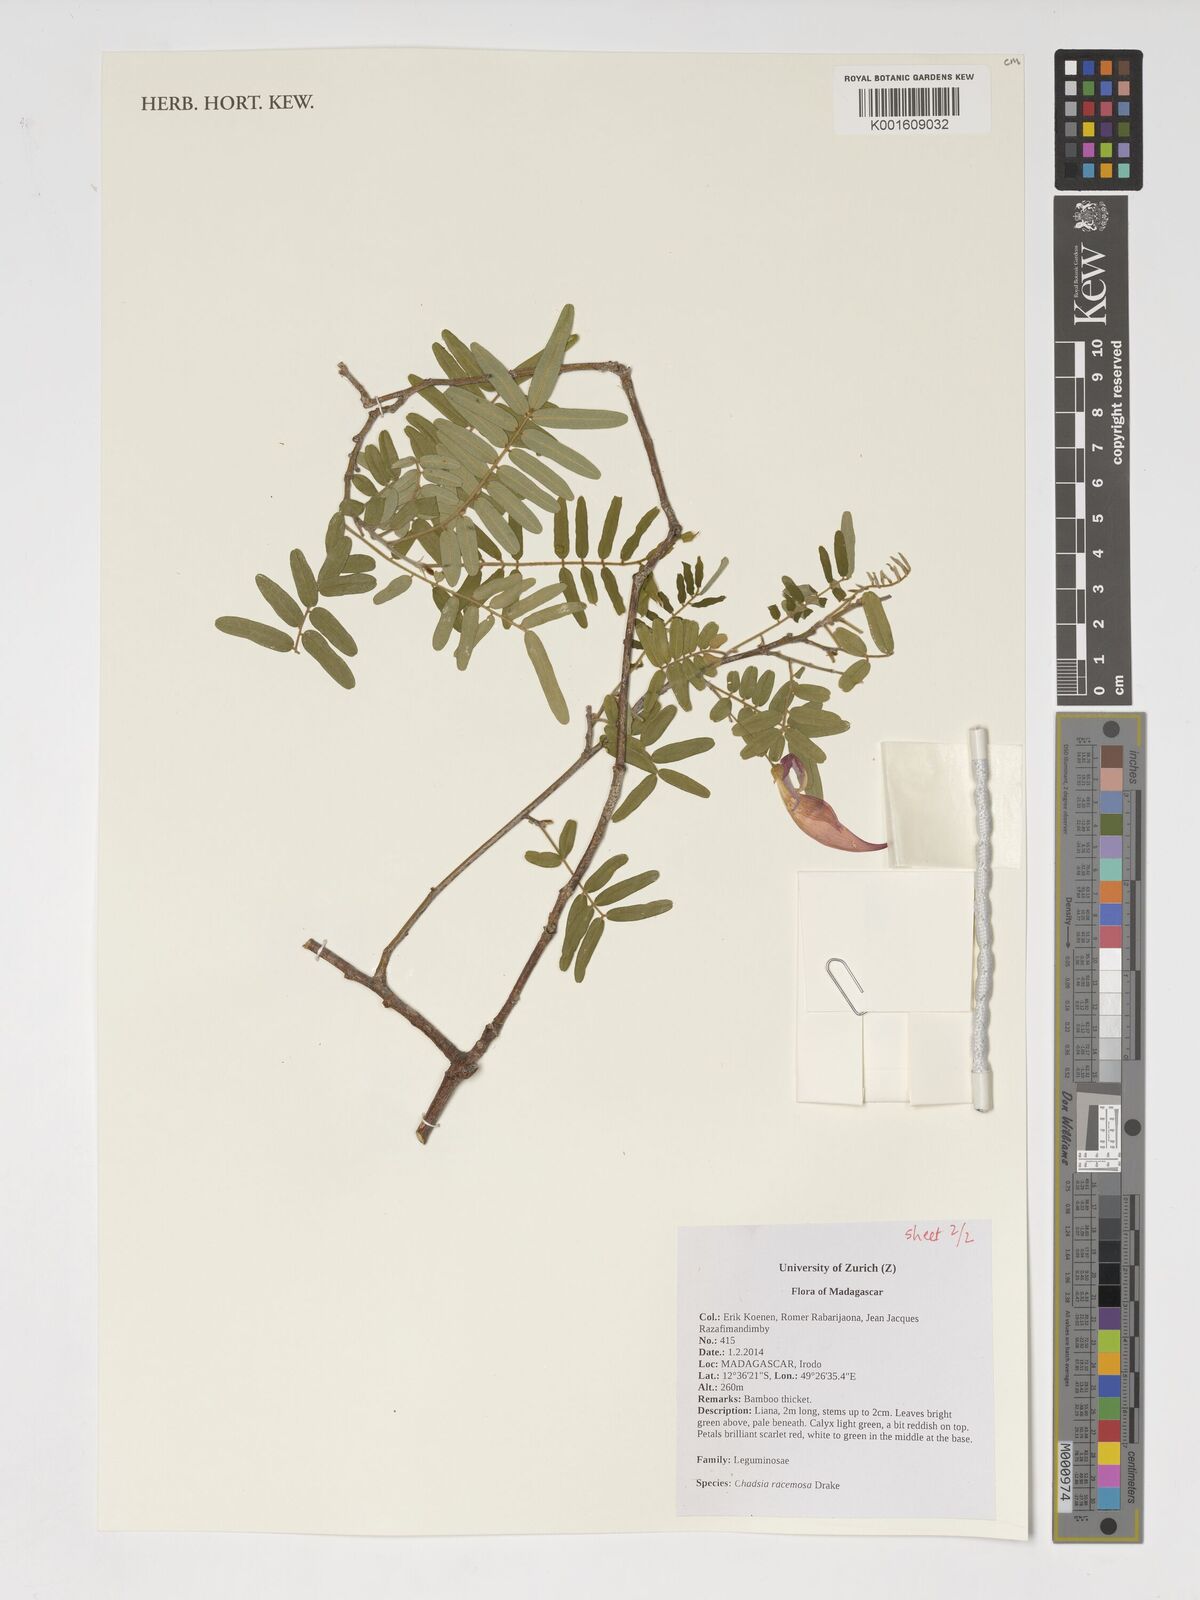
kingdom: Plantae
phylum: Tracheophyta
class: Magnoliopsida
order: Fabales
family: Fabaceae
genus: Chadsia
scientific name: Chadsia racemosa
